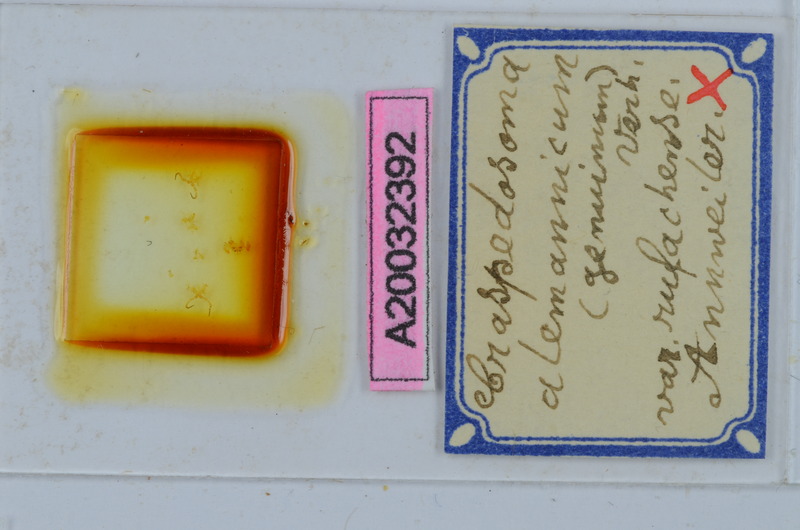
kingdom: Animalia
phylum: Arthropoda
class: Diplopoda
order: Chordeumatida
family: Craspedosomatidae
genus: Craspedosoma
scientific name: Craspedosoma rawlinsii
